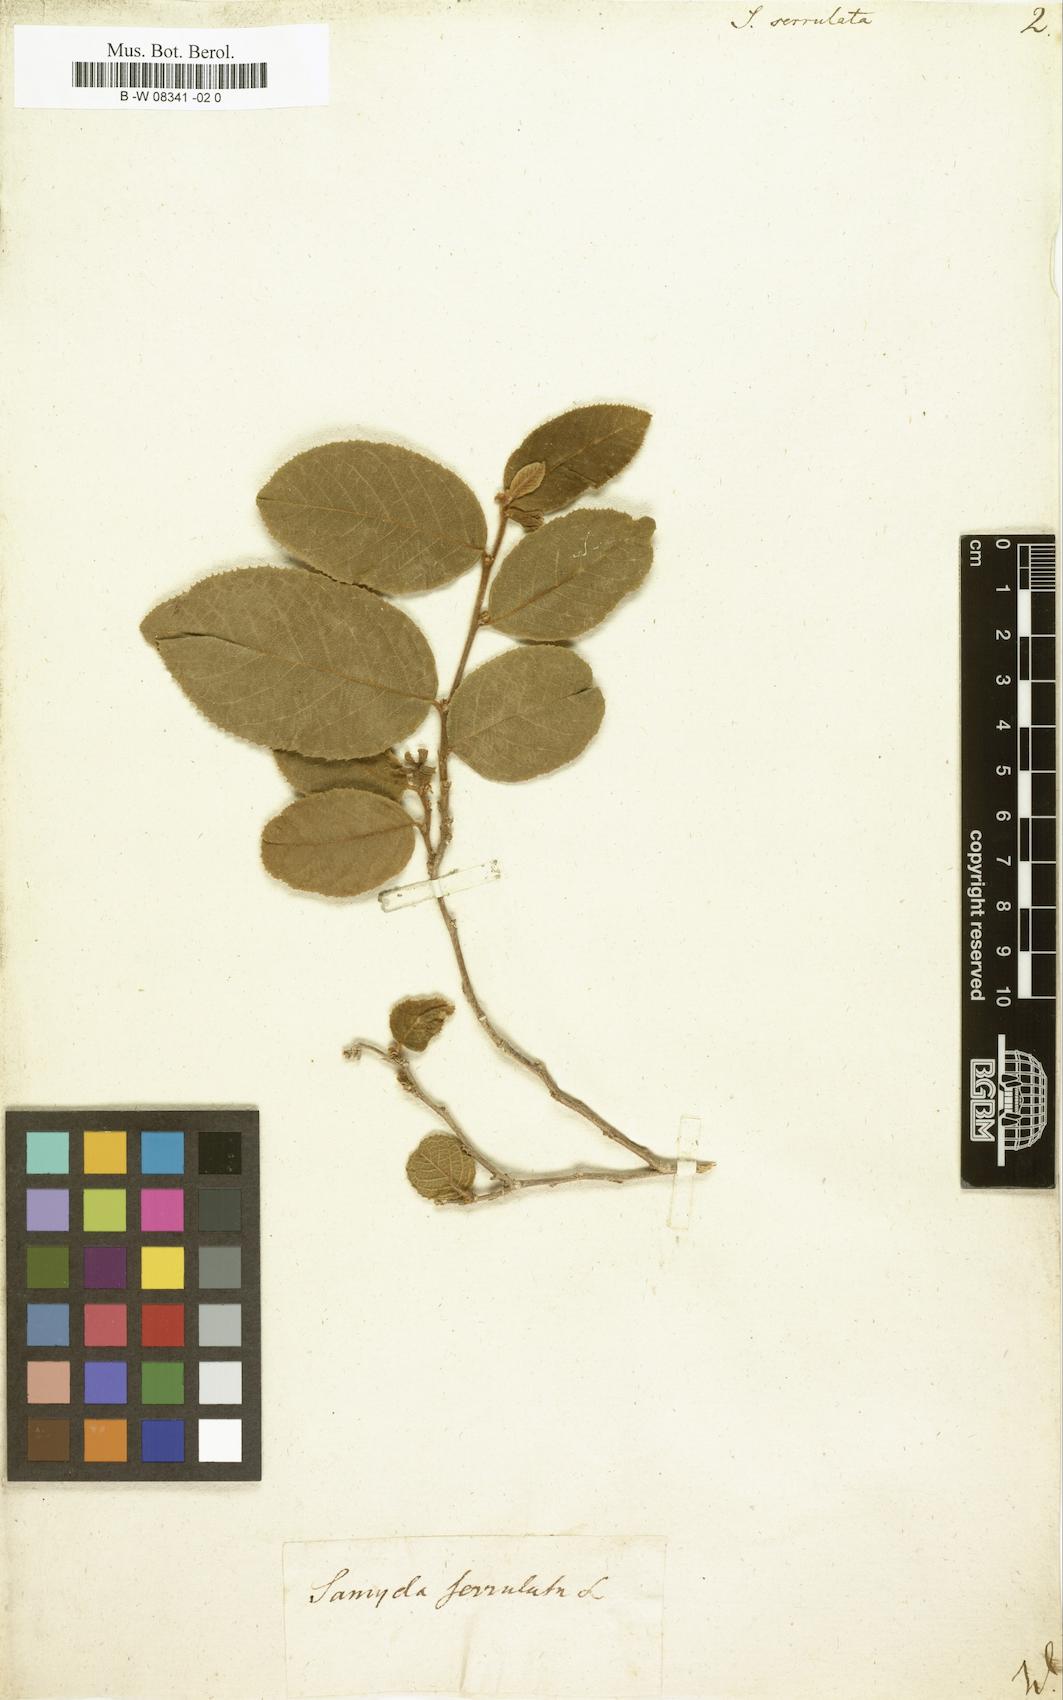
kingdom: Plantae
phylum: Tracheophyta
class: Magnoliopsida
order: Malpighiales
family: Salicaceae
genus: Casearia
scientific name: Casearia
